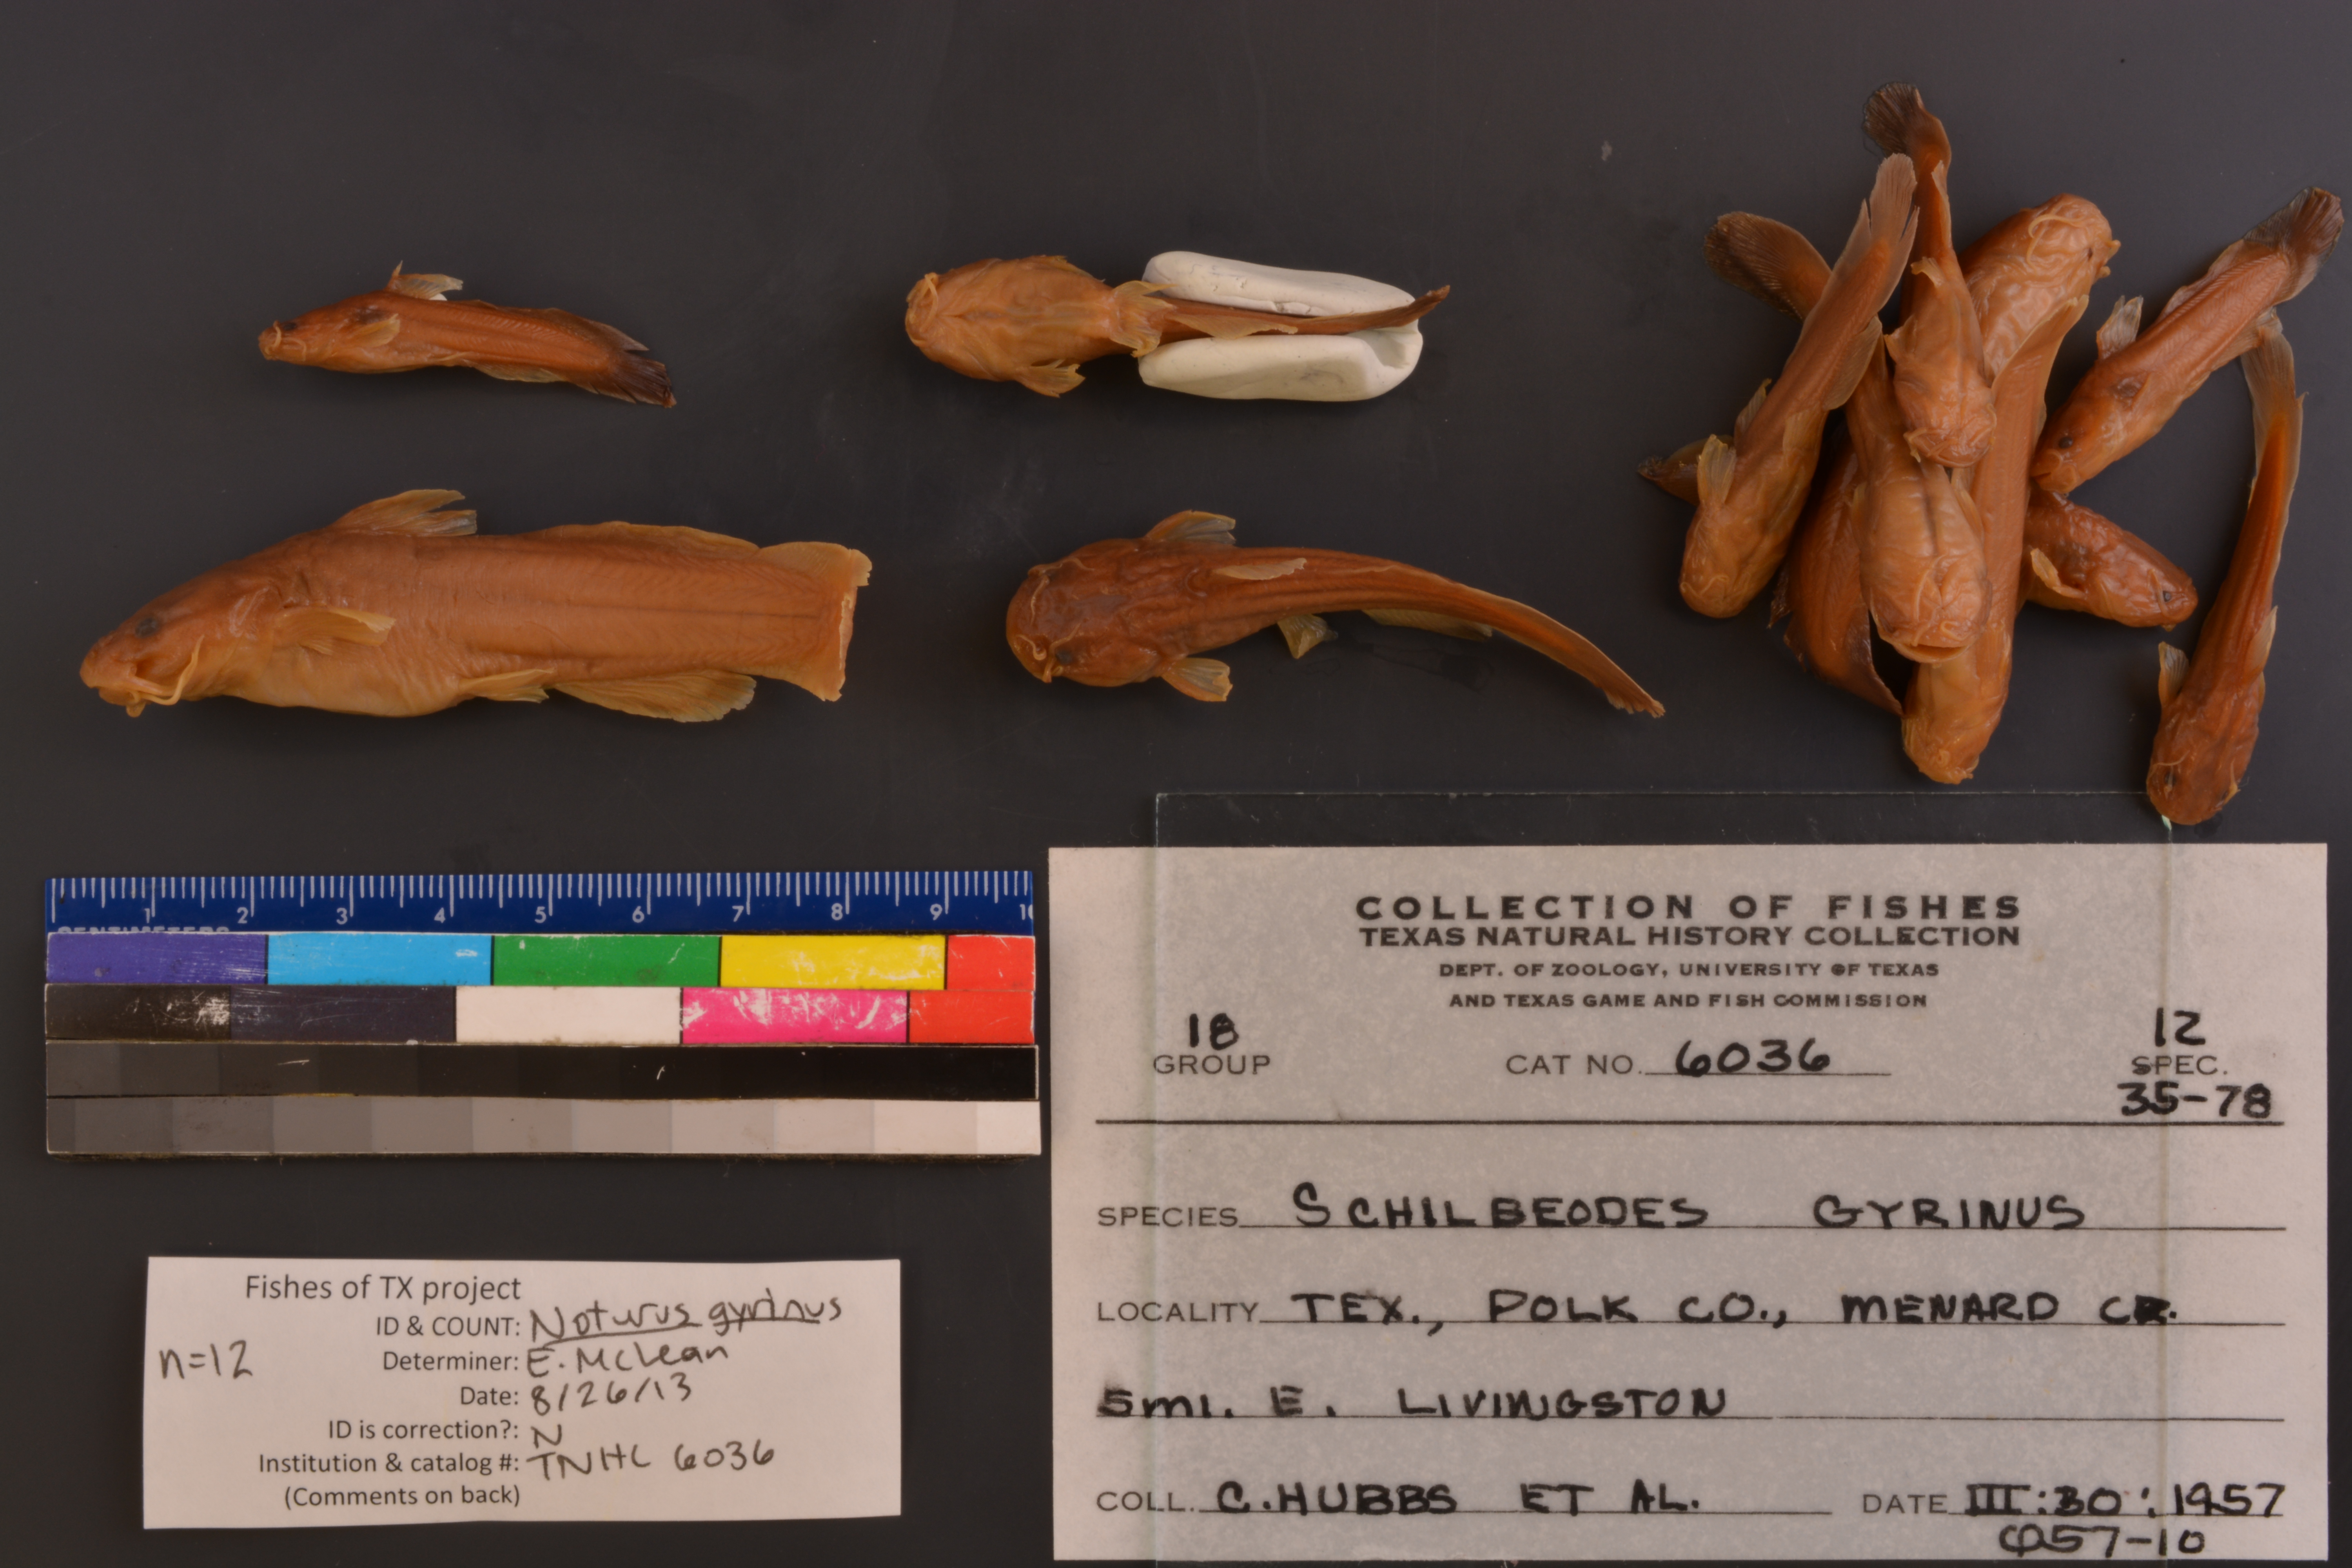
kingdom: Animalia
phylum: Chordata
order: Siluriformes
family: Ictaluridae
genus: Noturus
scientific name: Noturus gyrinus
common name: Tadpole madtom
